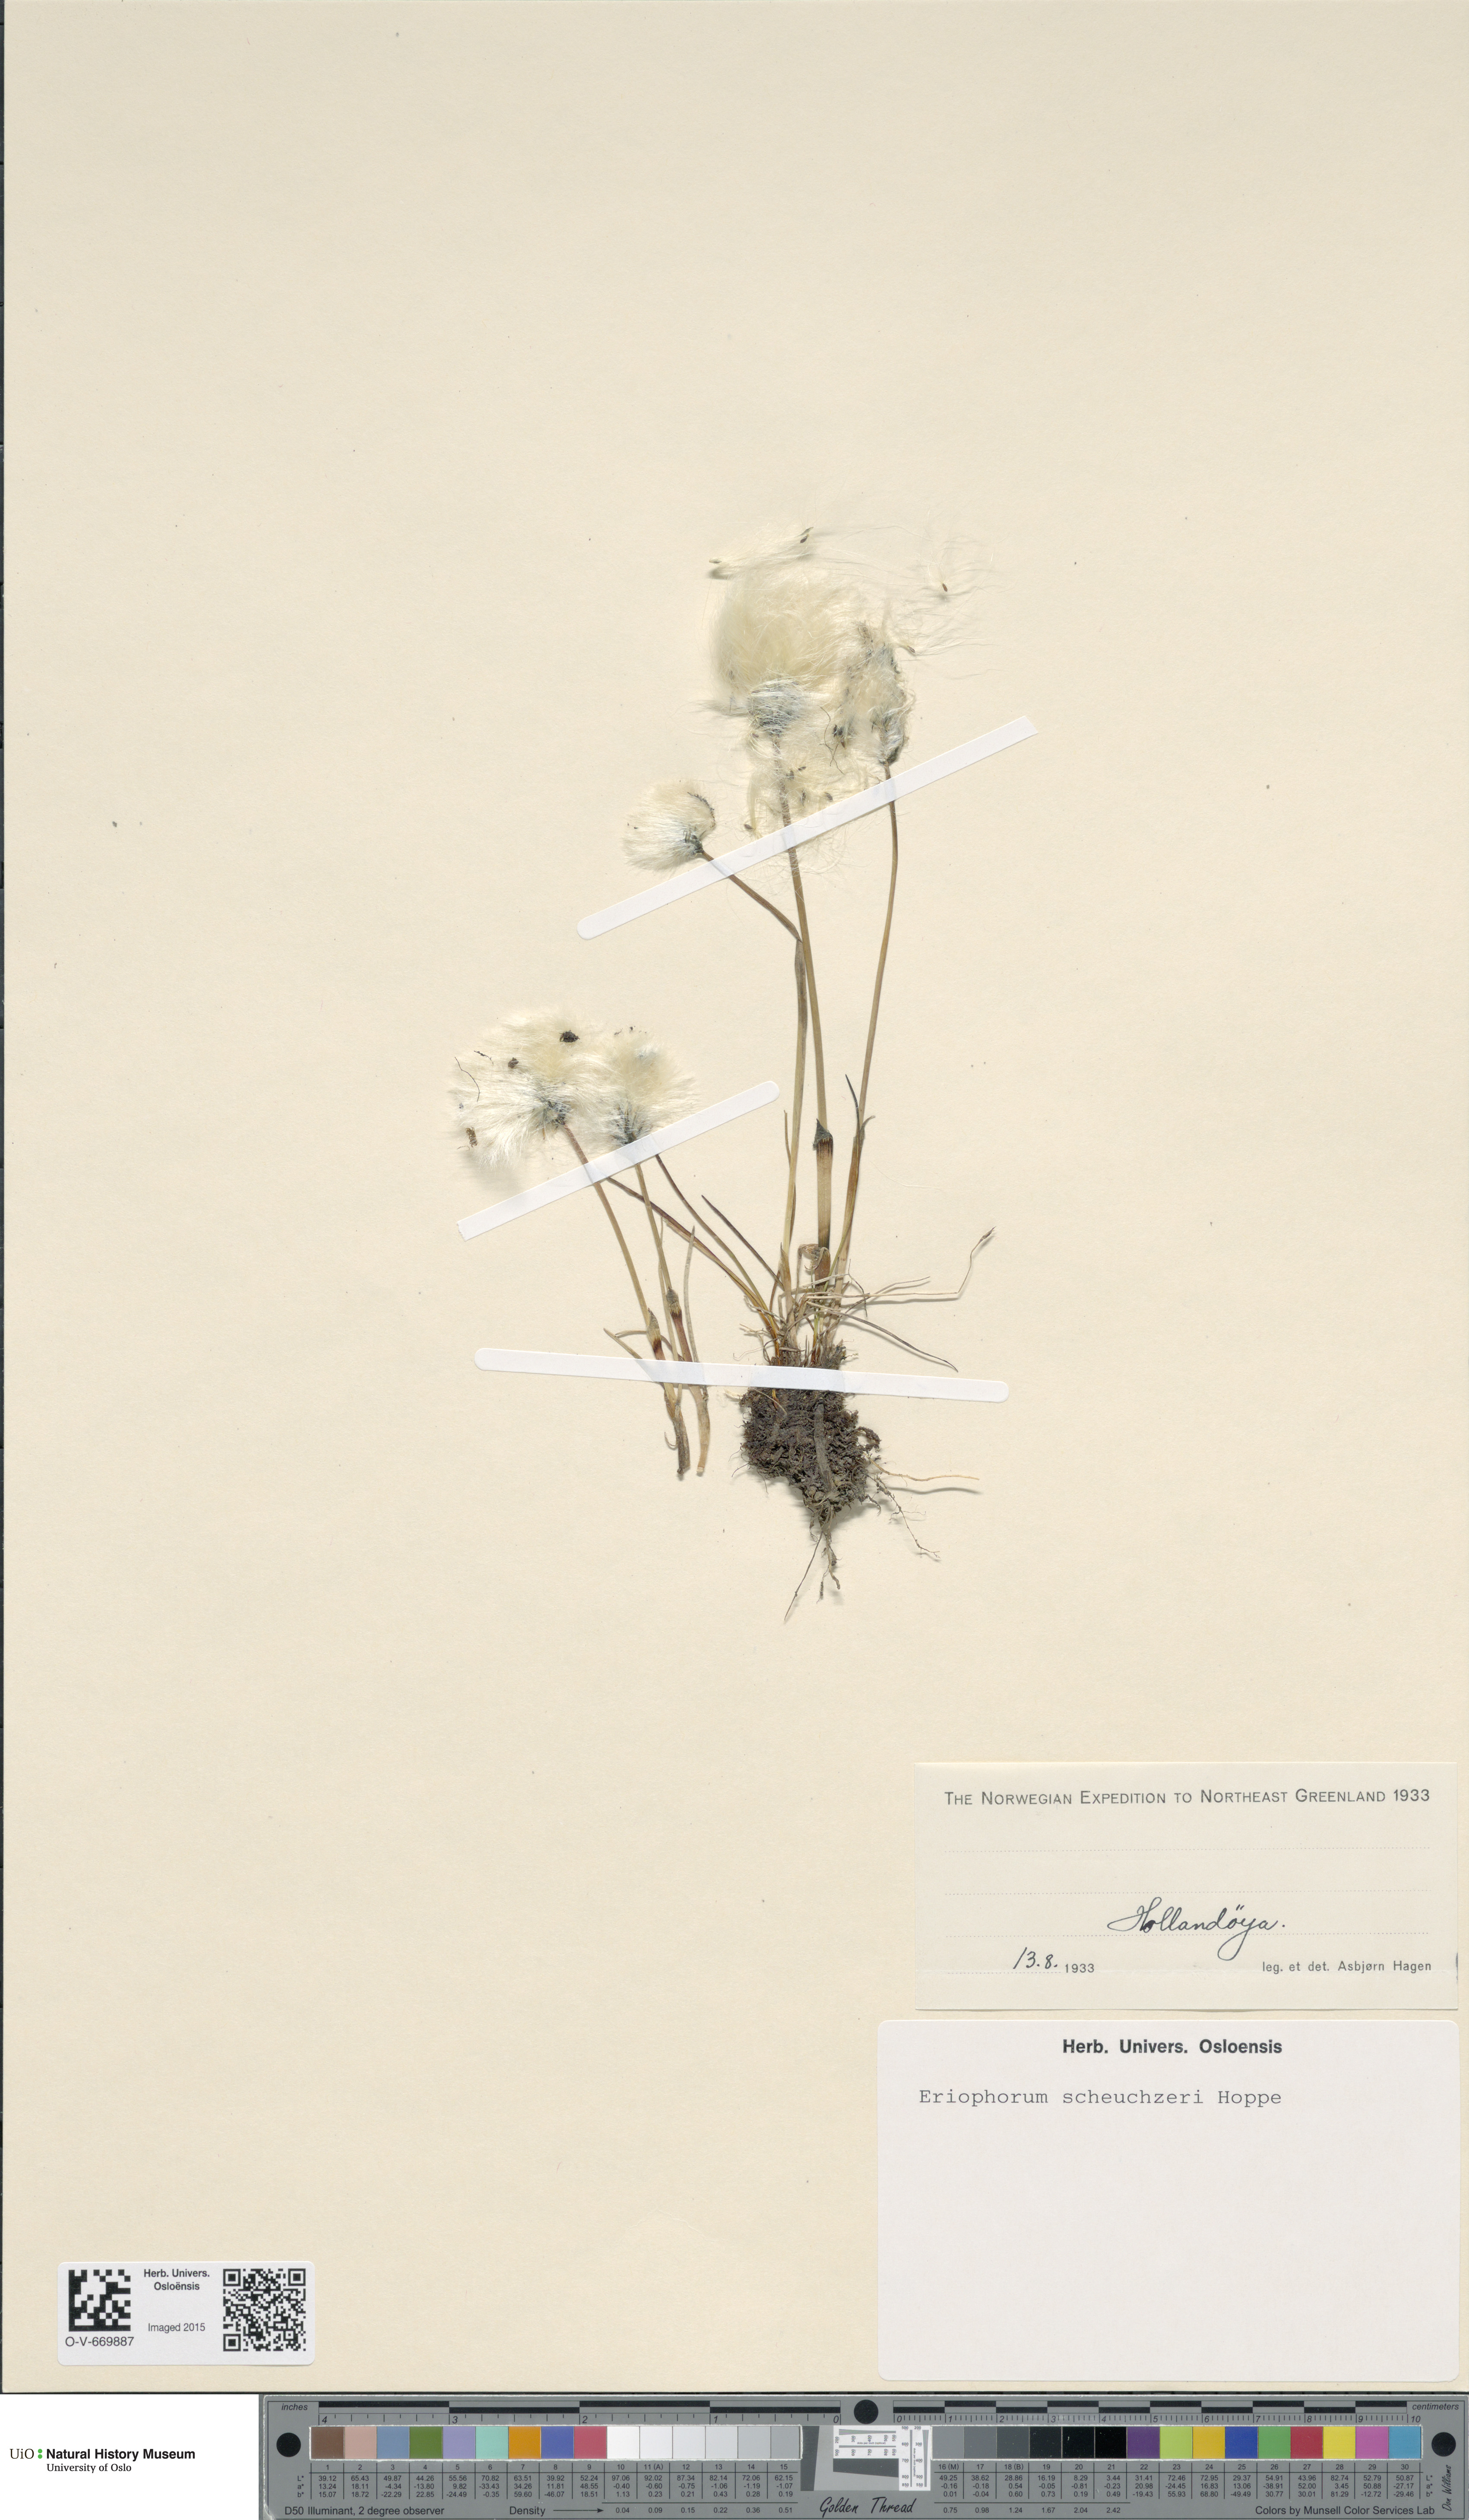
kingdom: Plantae
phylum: Tracheophyta
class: Liliopsida
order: Poales
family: Cyperaceae
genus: Eriophorum
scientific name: Eriophorum scheuchzeri
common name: Scheuchzer's cottongrass
